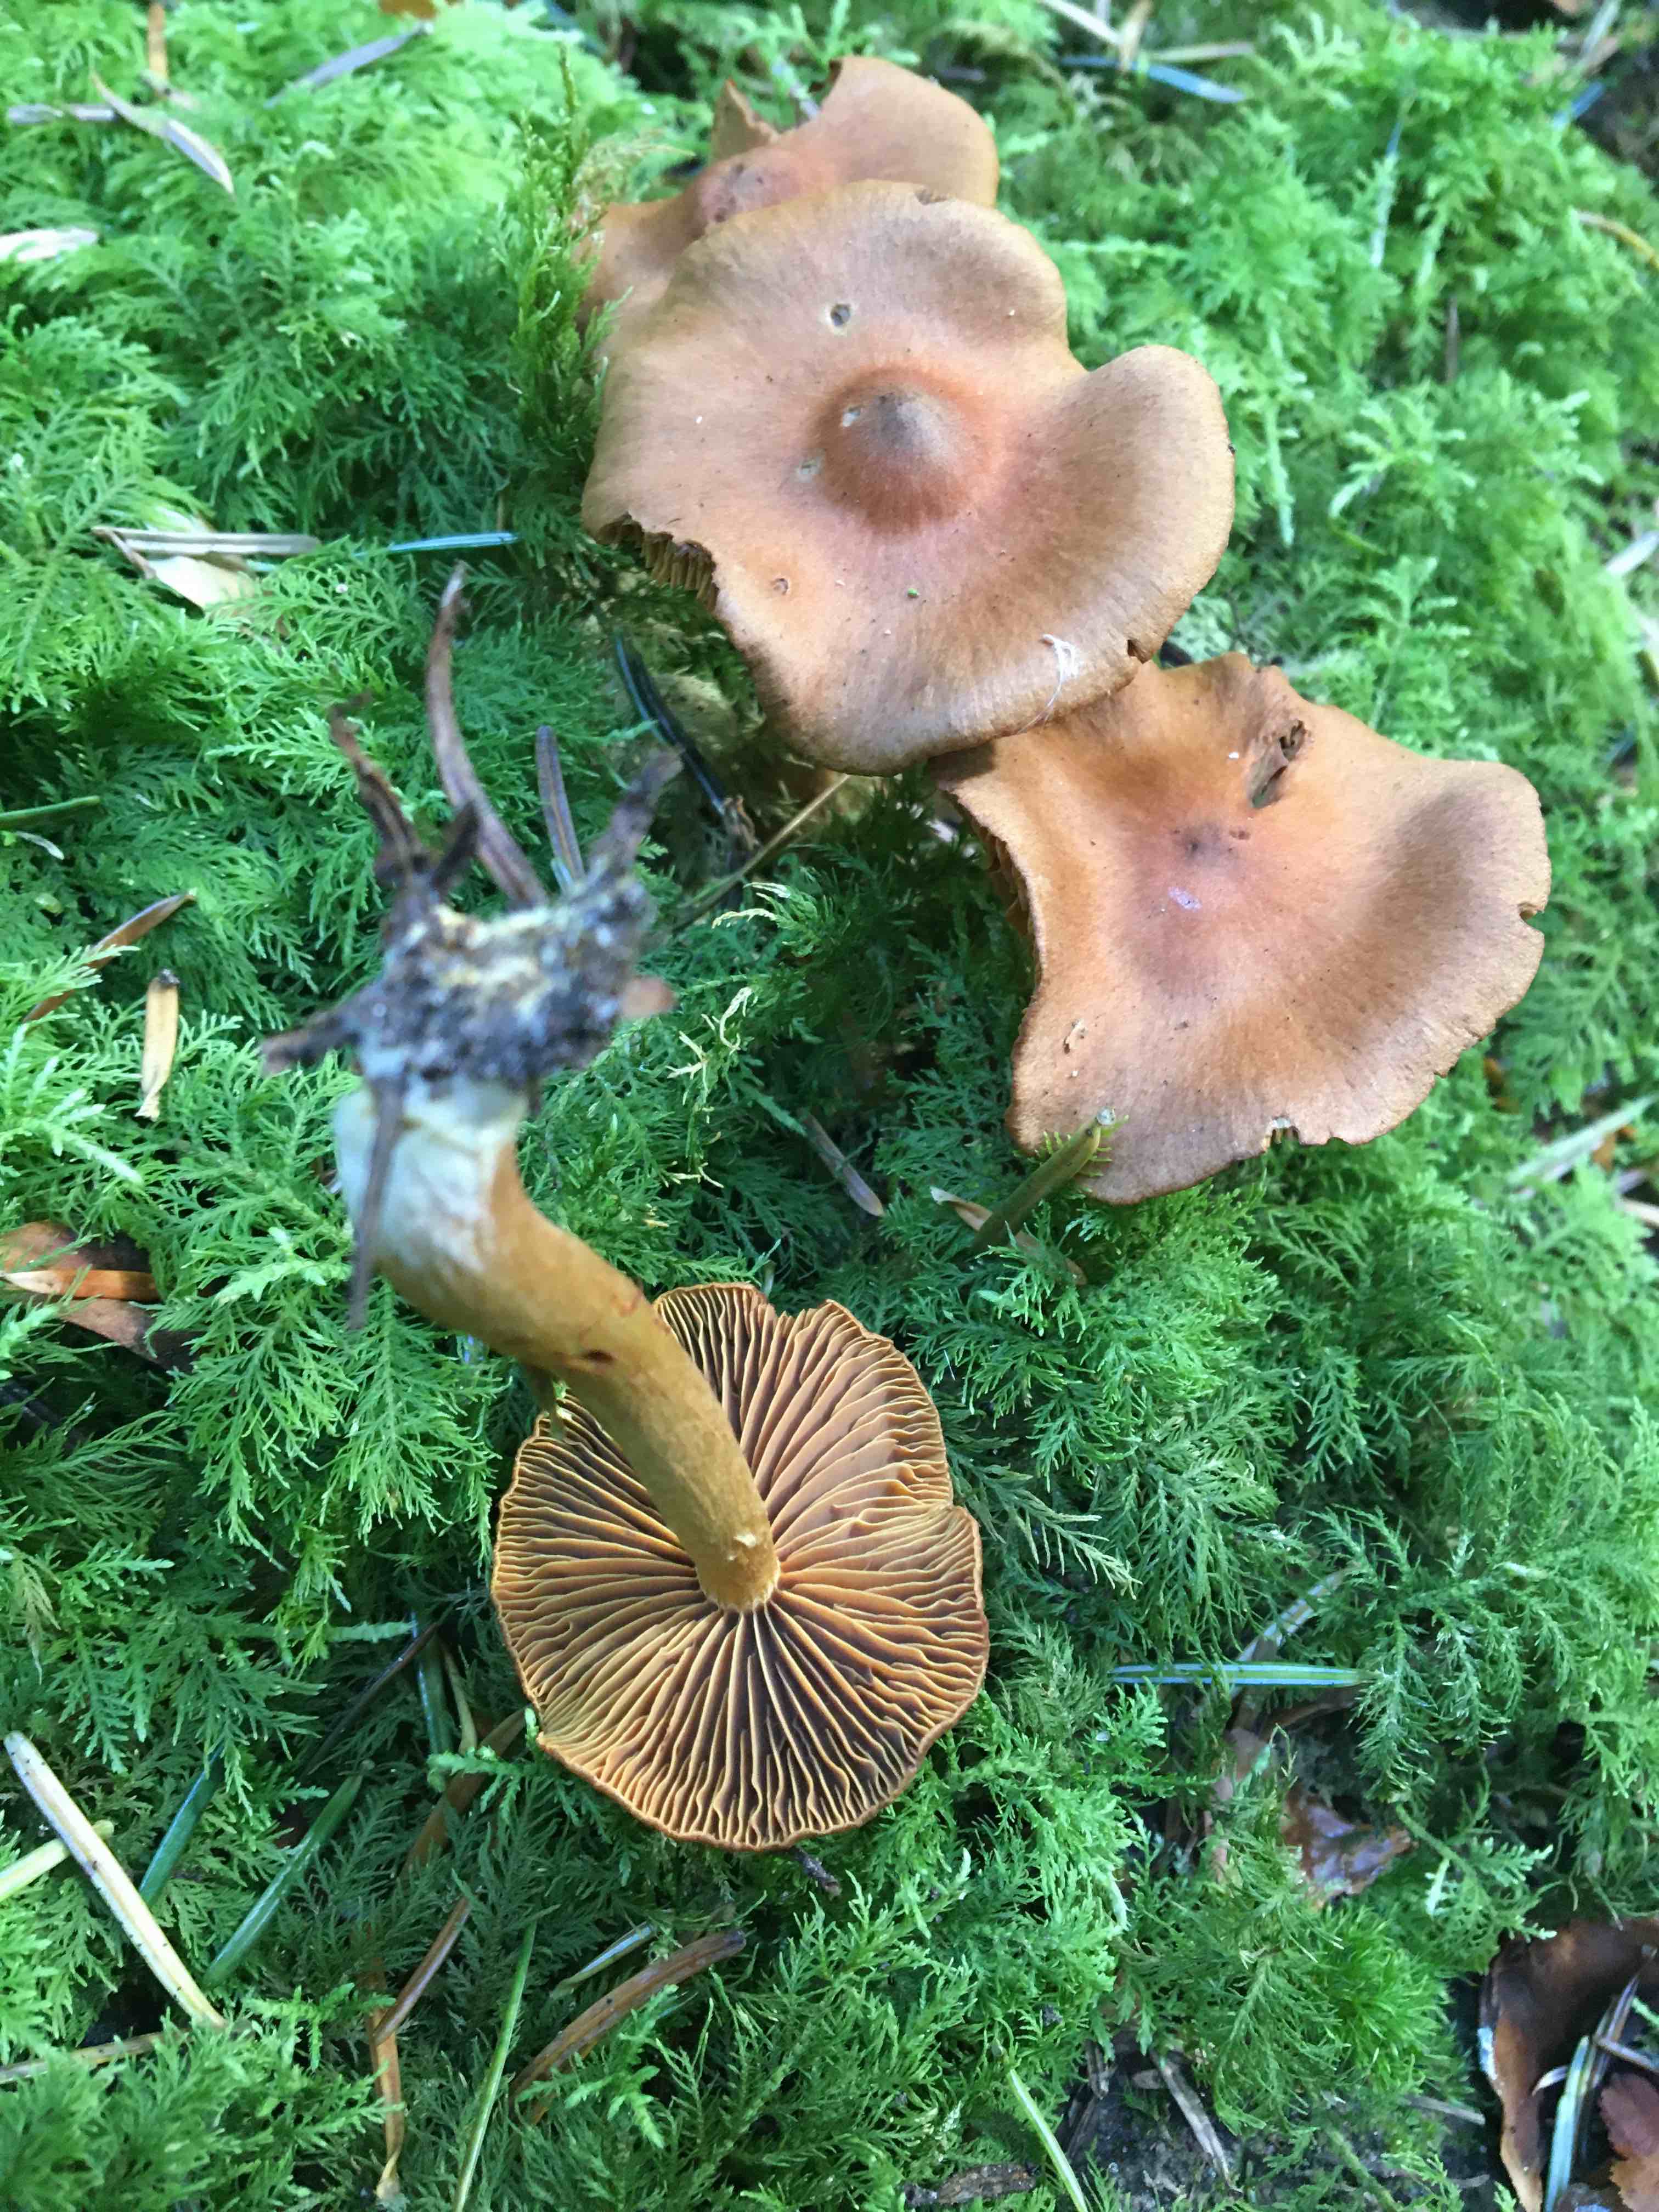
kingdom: Fungi
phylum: Basidiomycota
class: Agaricomycetes
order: Agaricales
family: Cortinariaceae
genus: Cortinarius
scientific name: Cortinarius
